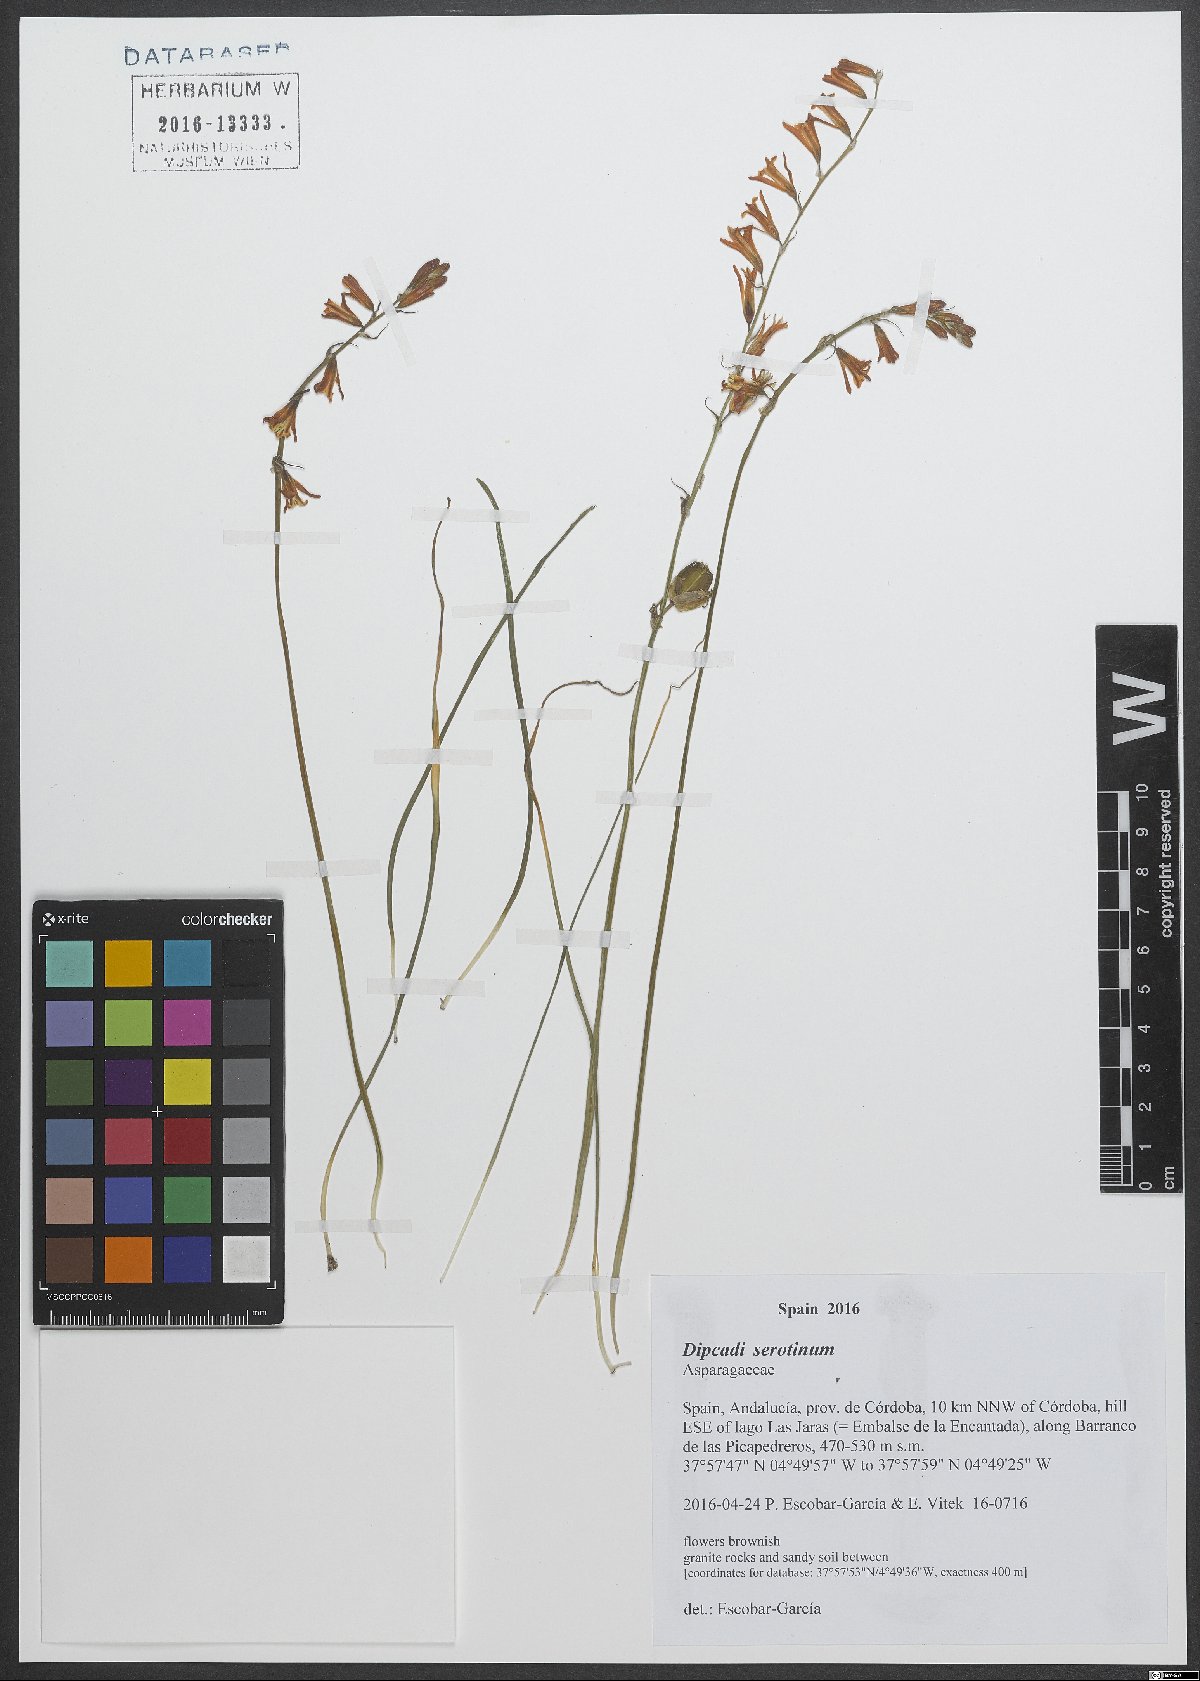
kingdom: Plantae
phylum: Tracheophyta
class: Liliopsida
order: Asparagales
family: Asparagaceae
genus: Dipcadi
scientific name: Dipcadi serotinum
